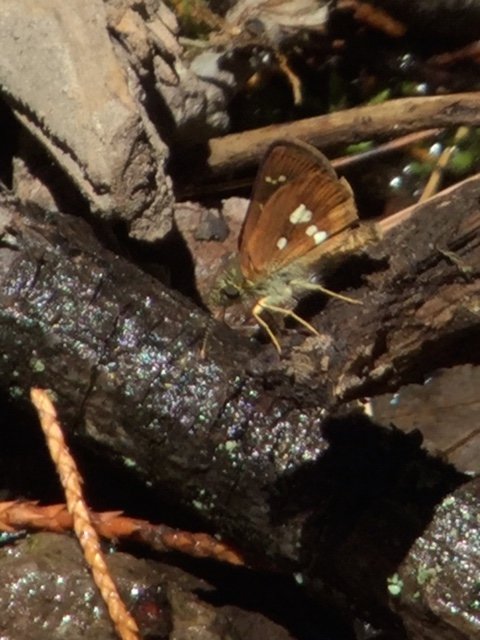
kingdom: Animalia
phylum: Arthropoda
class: Insecta
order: Lepidoptera
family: Hesperiidae
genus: Piruna
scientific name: Piruna polingii
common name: Four-spotted Skipperling
